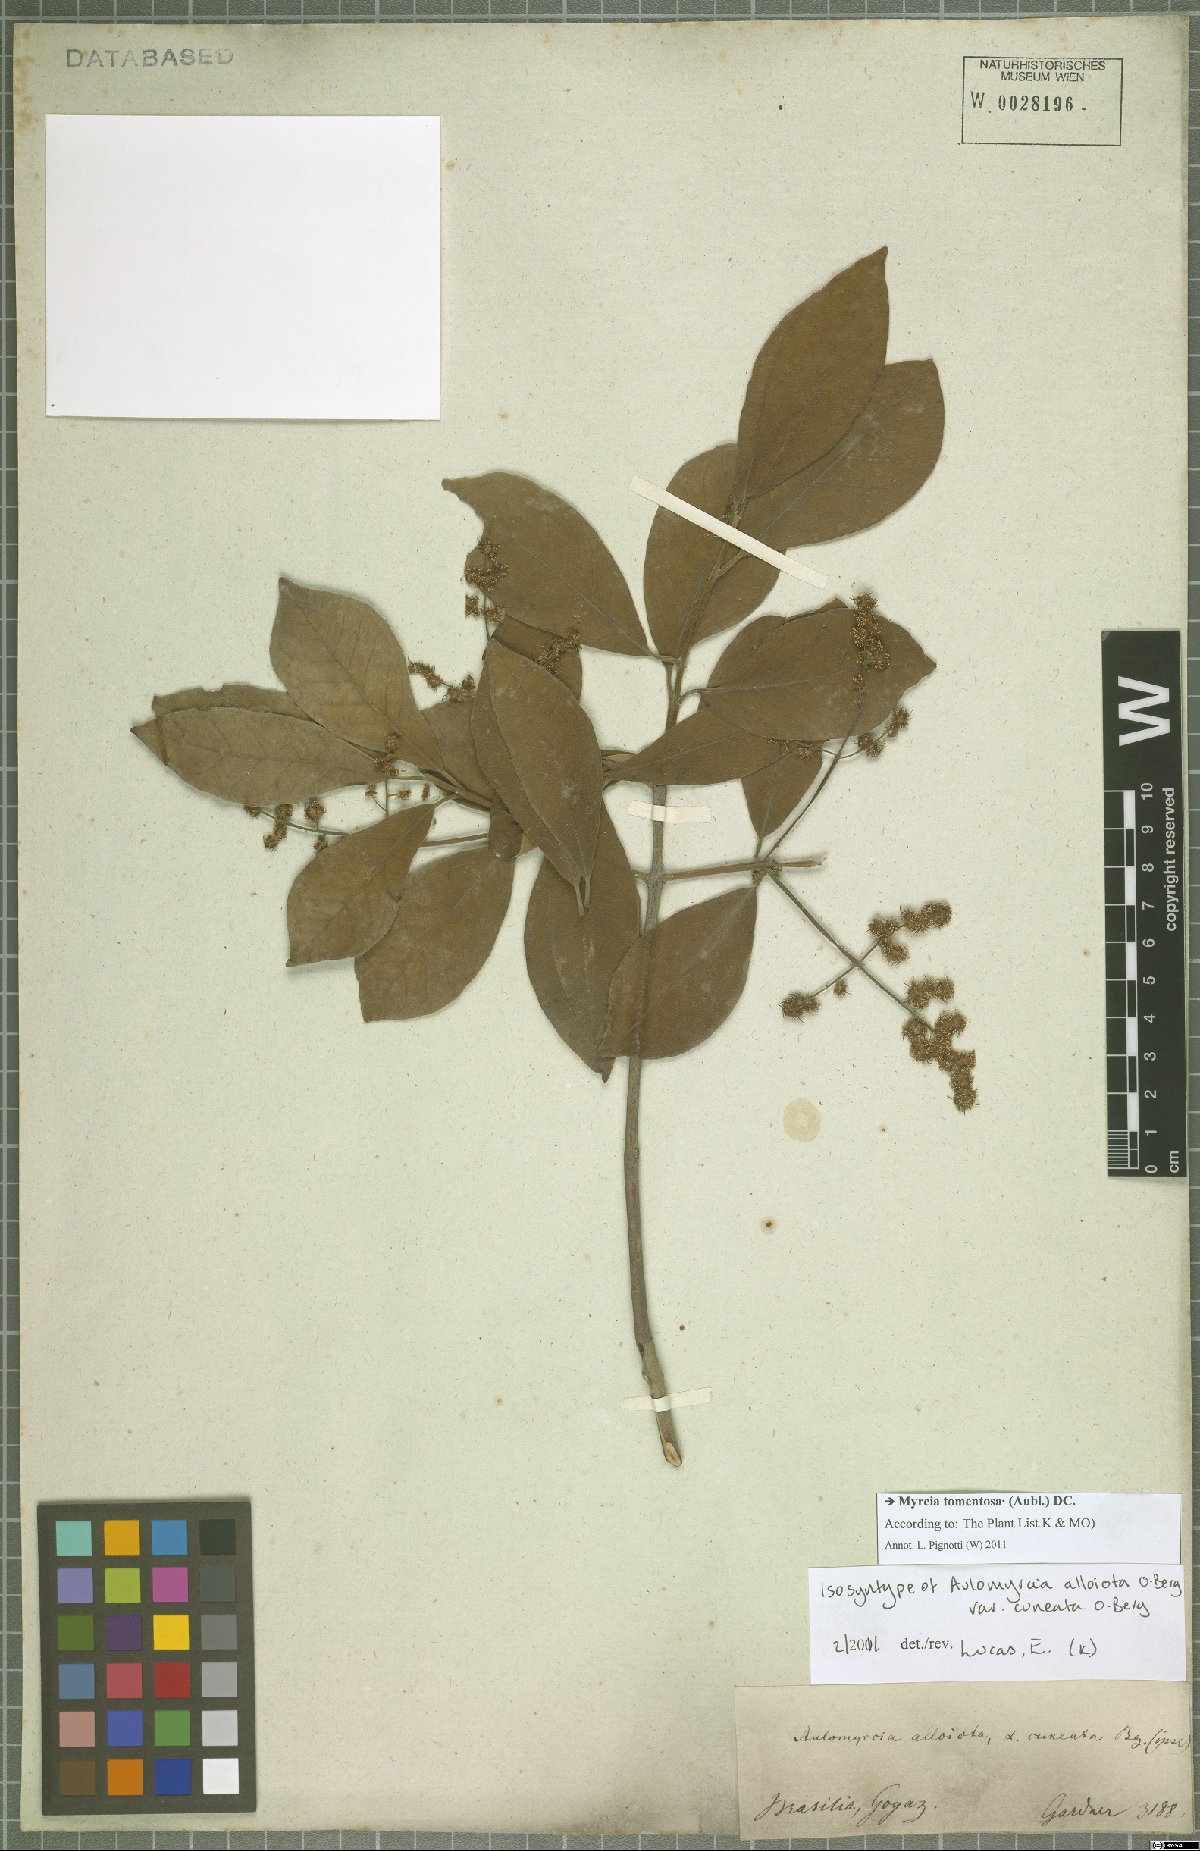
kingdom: Plantae
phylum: Tracheophyta
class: Magnoliopsida
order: Myrtales
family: Myrtaceae
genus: Myrcia
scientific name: Myrcia tomentosa
